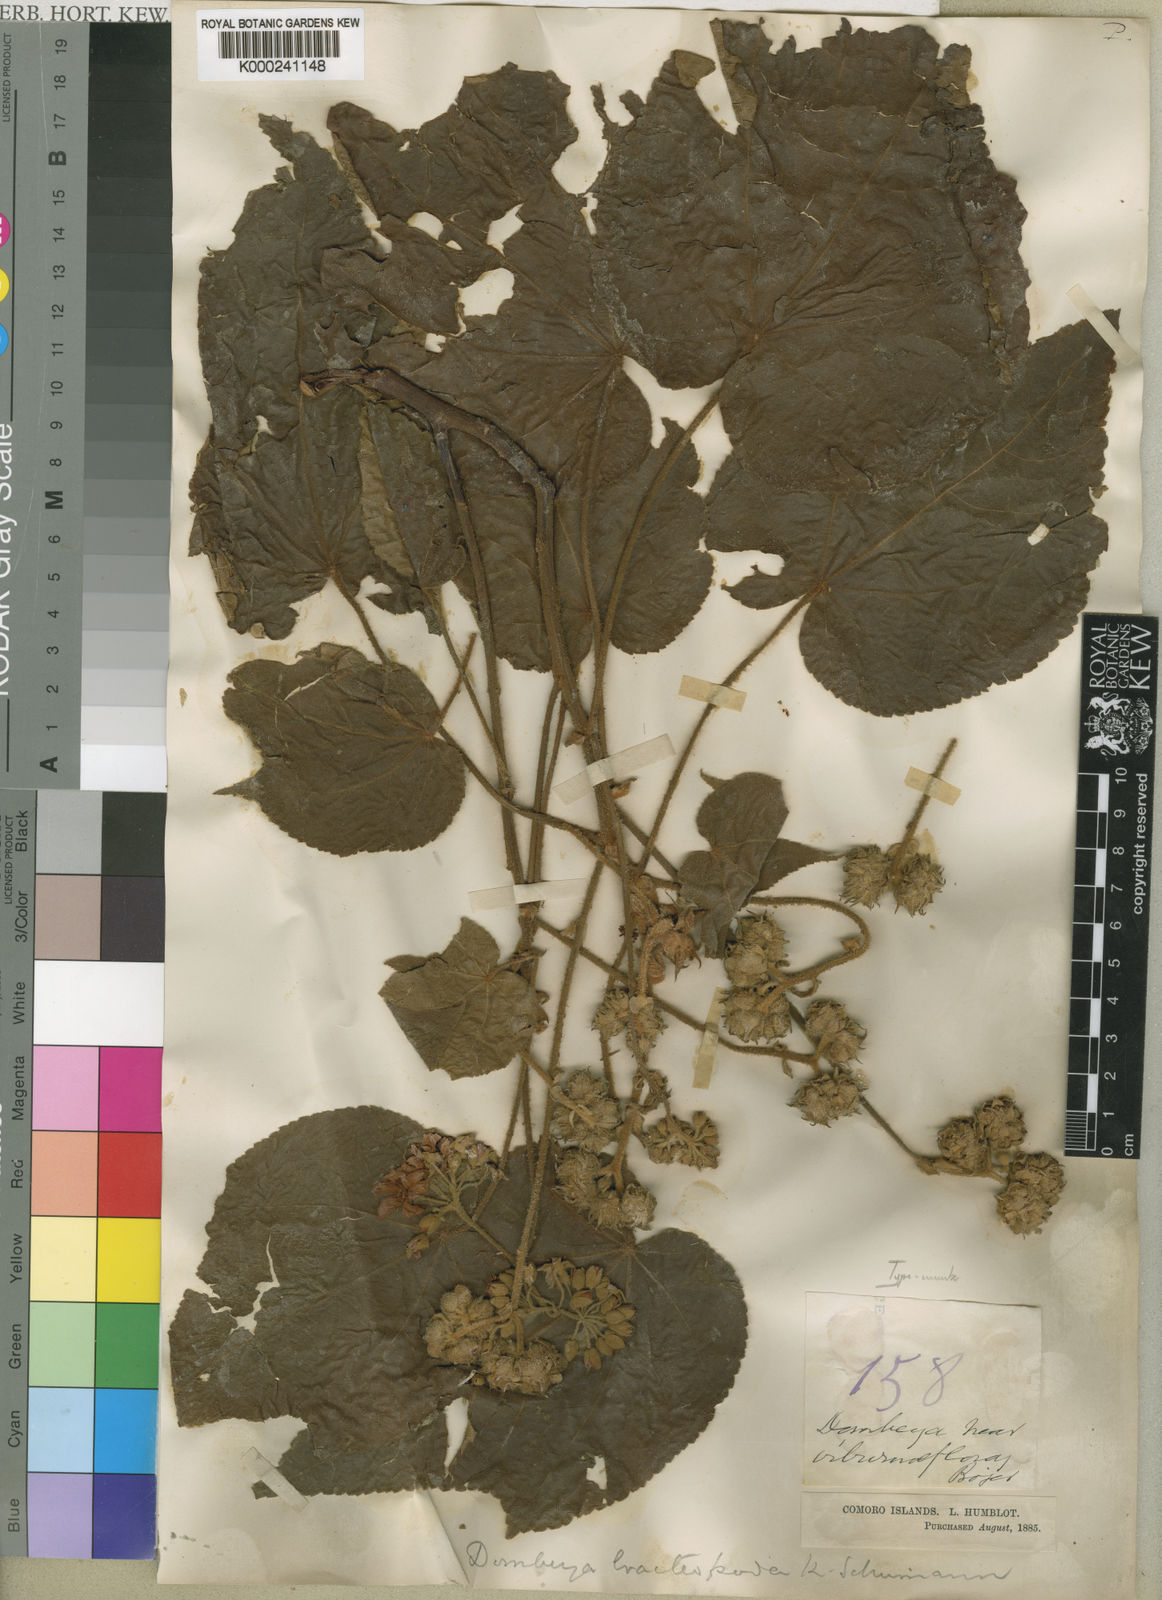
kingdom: Plantae
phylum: Tracheophyta
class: Magnoliopsida
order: Malvales
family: Malvaceae
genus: Dombeya
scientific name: Dombeya viburniflora
